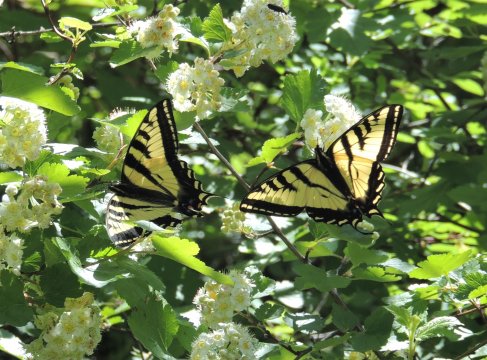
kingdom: Animalia
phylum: Arthropoda
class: Insecta
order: Lepidoptera
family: Papilionidae
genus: Pterourus
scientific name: Pterourus rutulus
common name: Western Tiger Swallowtail
